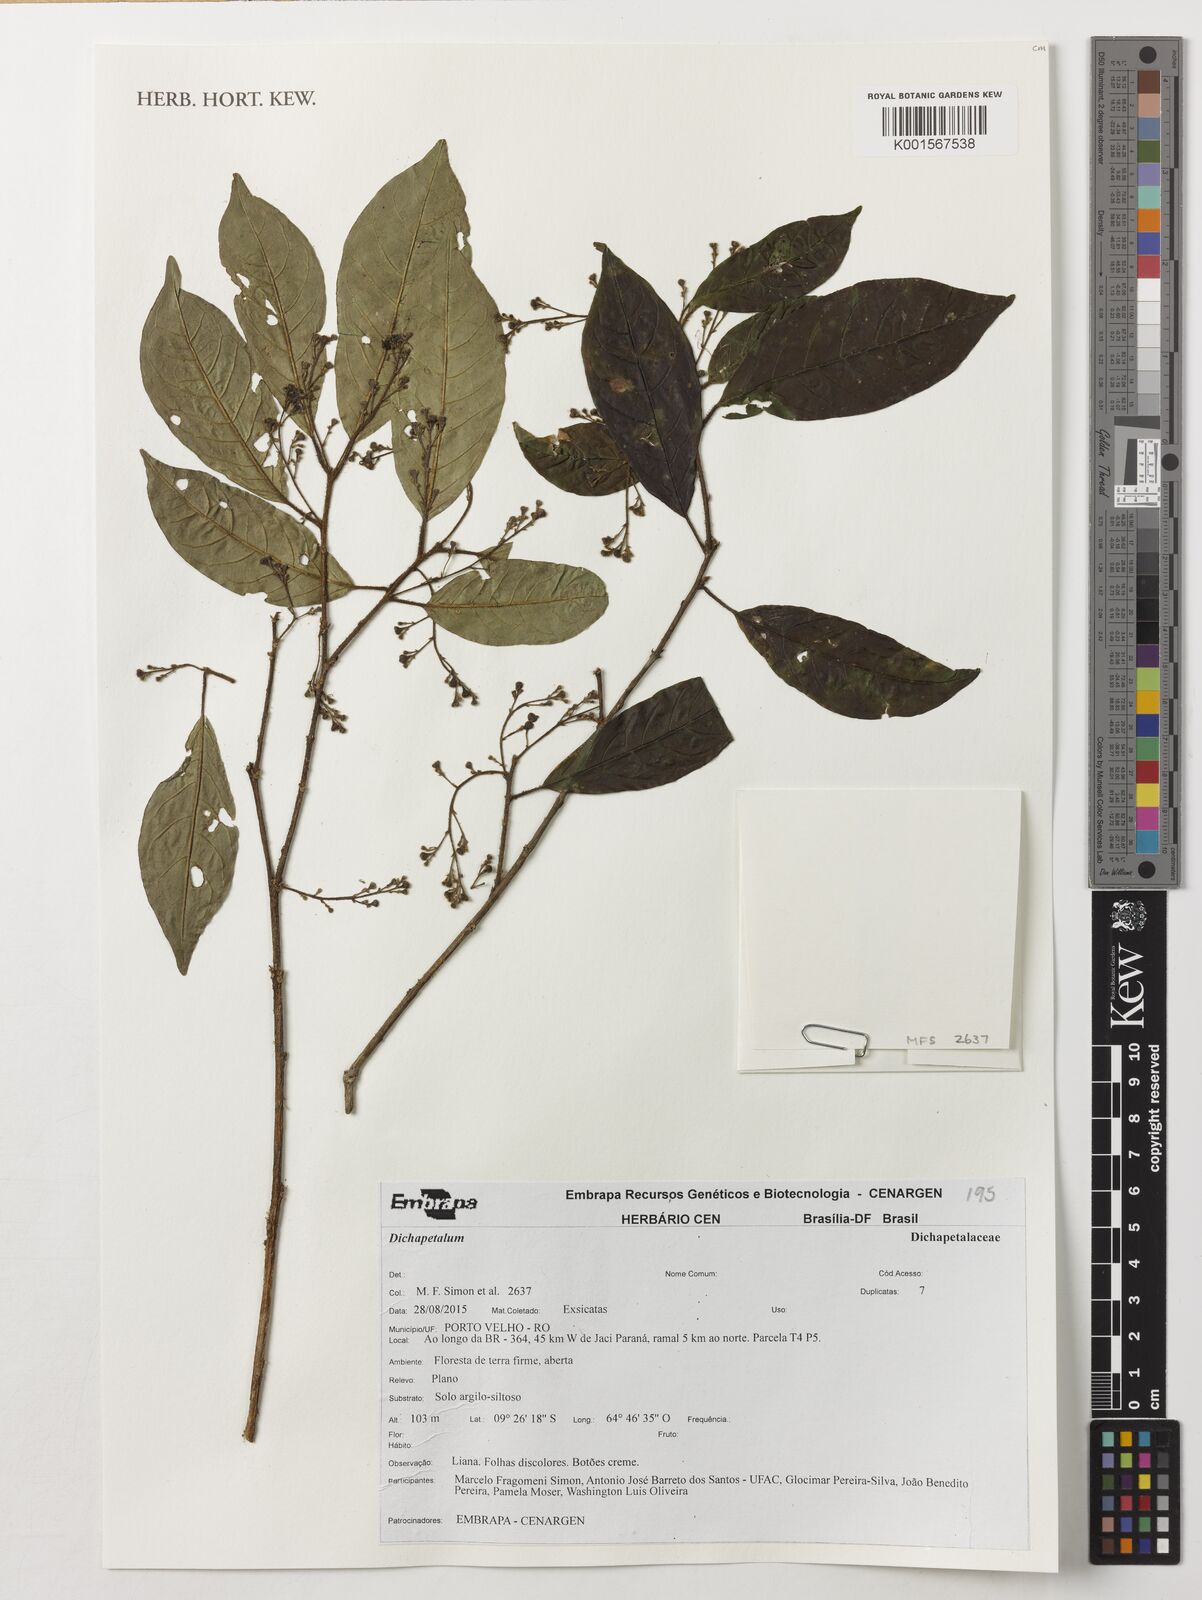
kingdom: Plantae
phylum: Tracheophyta
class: Magnoliopsida
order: Malpighiales
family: Dichapetalaceae
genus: Dichapetalum
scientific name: Dichapetalum
